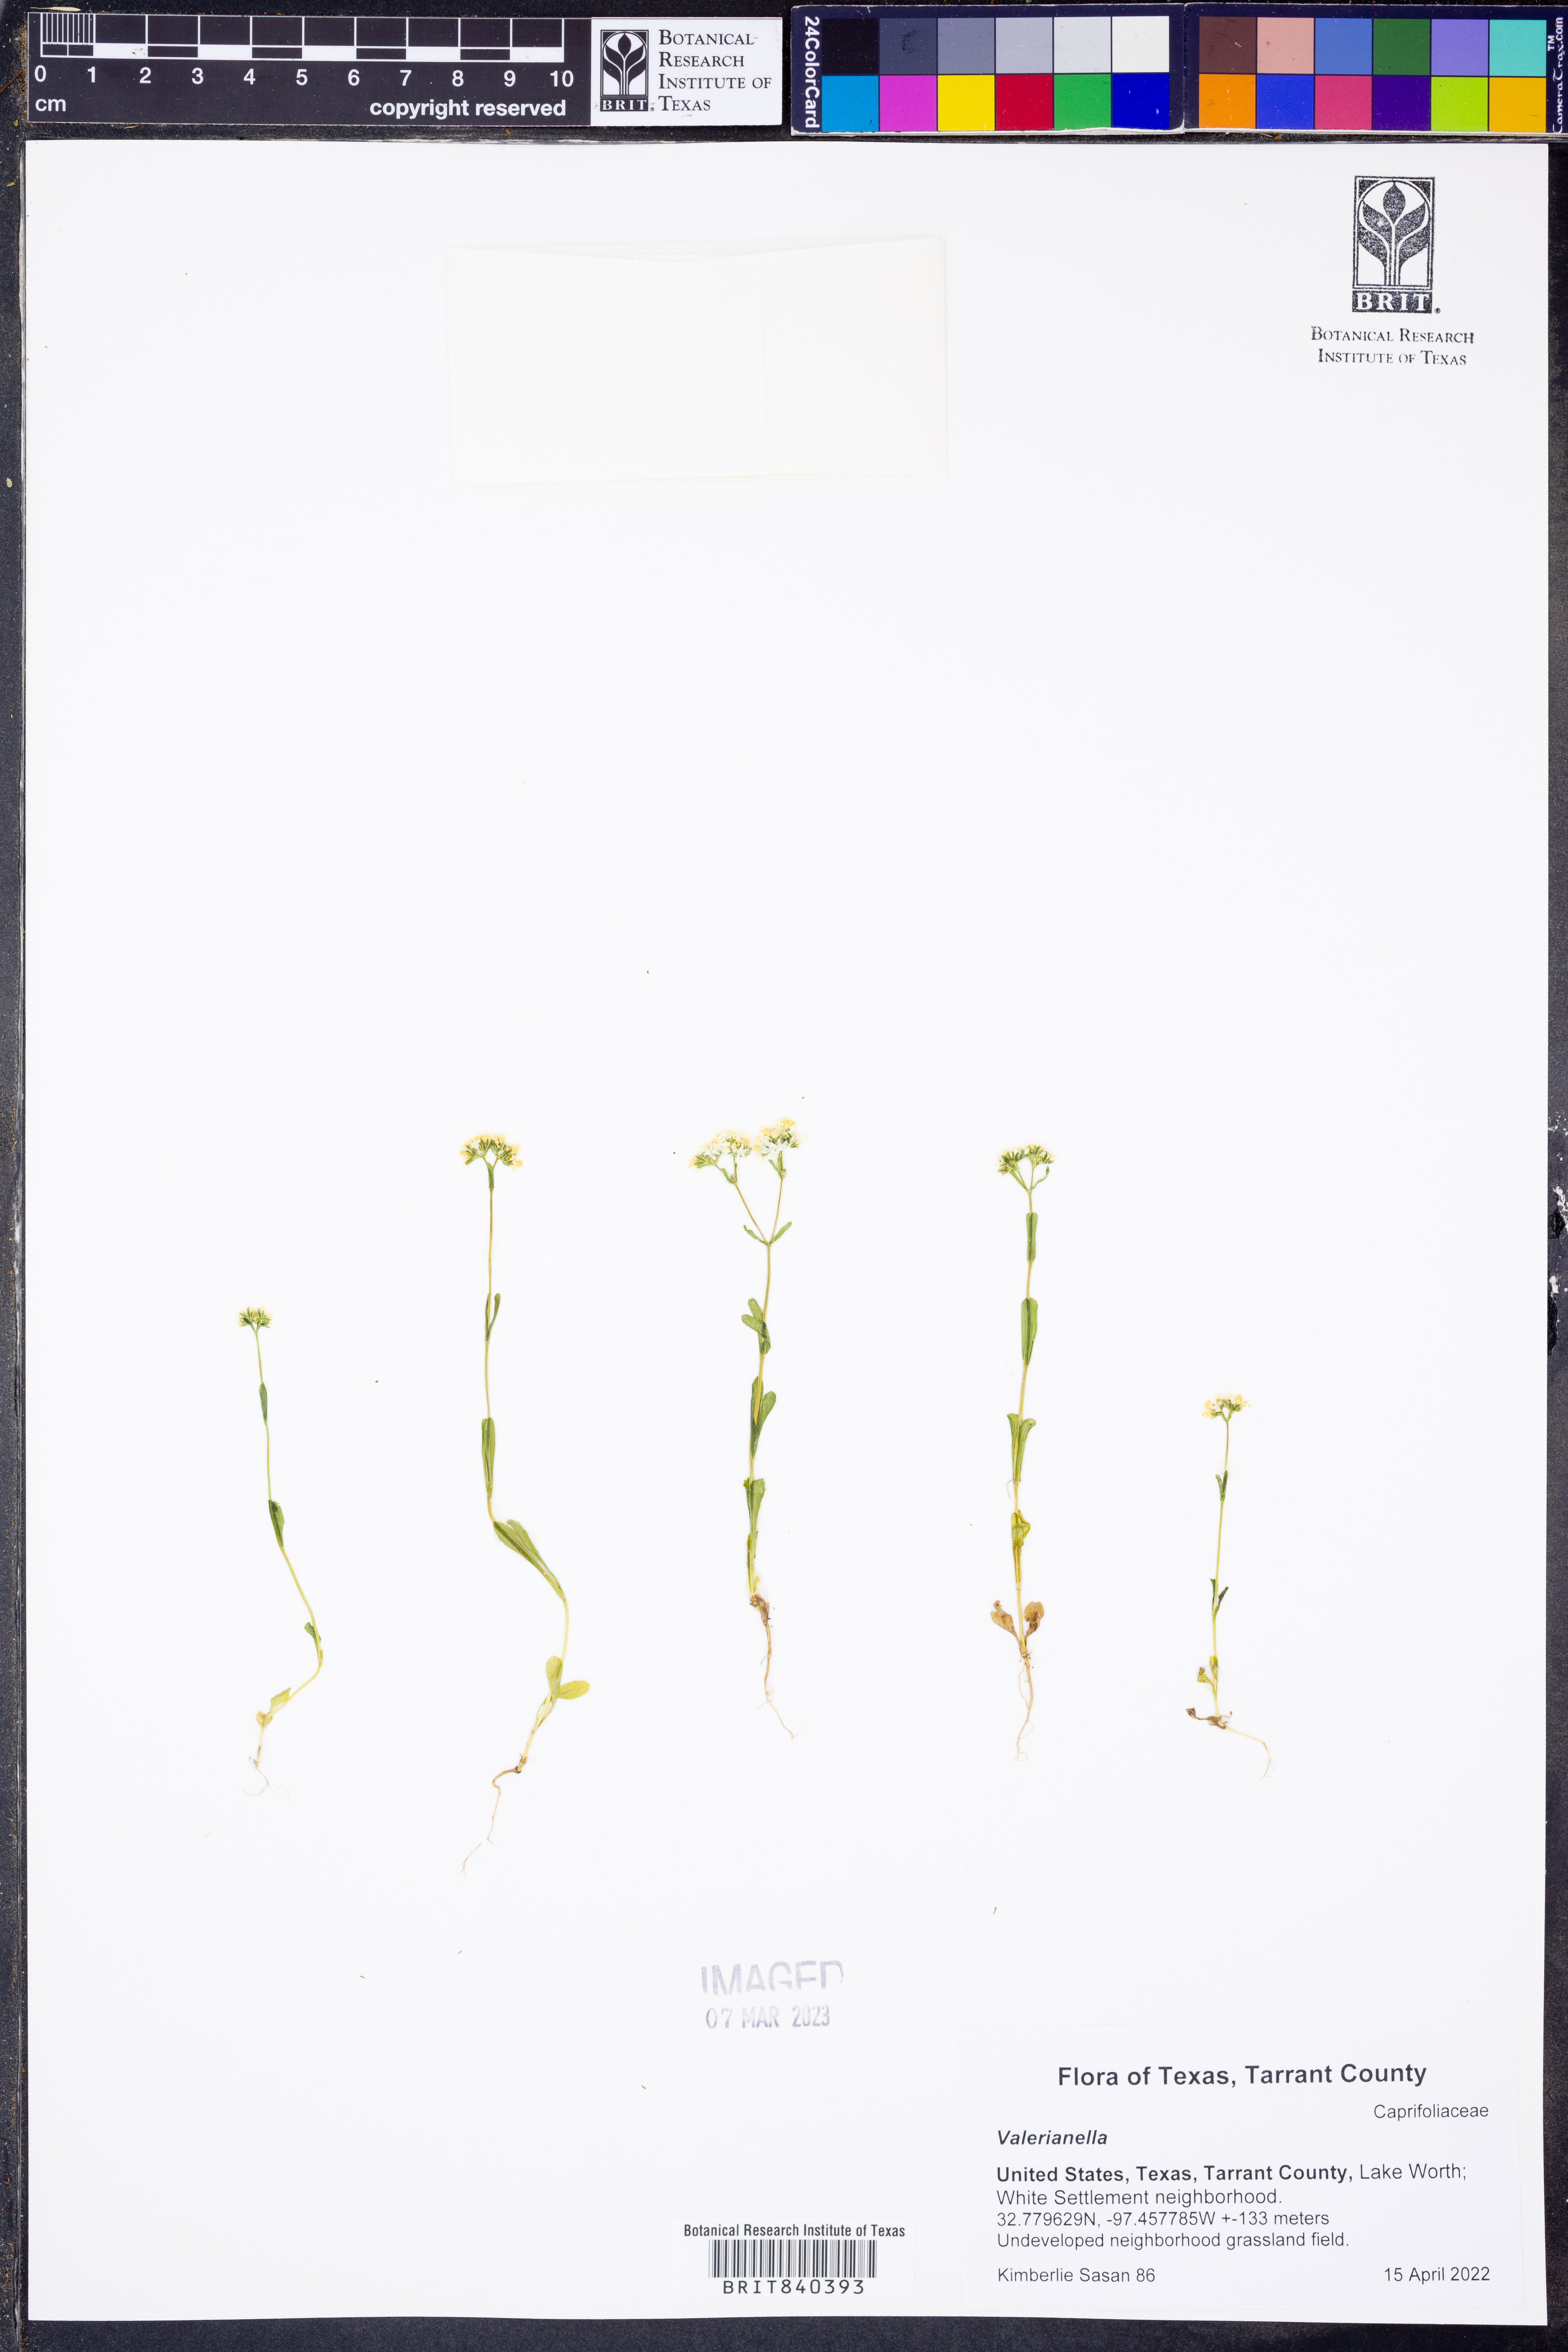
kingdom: Plantae
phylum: Tracheophyta
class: Magnoliopsida
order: Dipsacales
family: Caprifoliaceae
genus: Valerianella
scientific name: Valerianella
